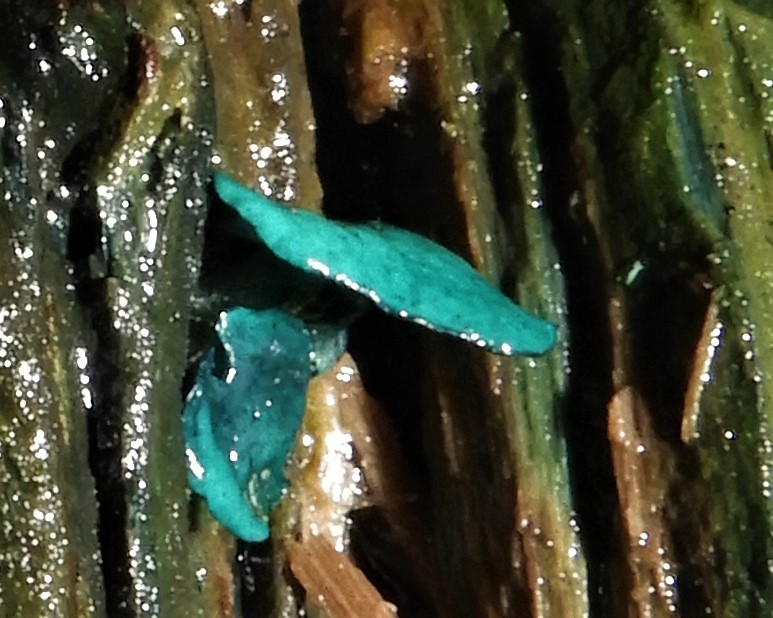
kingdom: Fungi
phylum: Ascomycota
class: Leotiomycetes
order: Helotiales
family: Chlorociboriaceae
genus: Chlorociboria
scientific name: Chlorociboria aeruginascens
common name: almindelig grønskive
